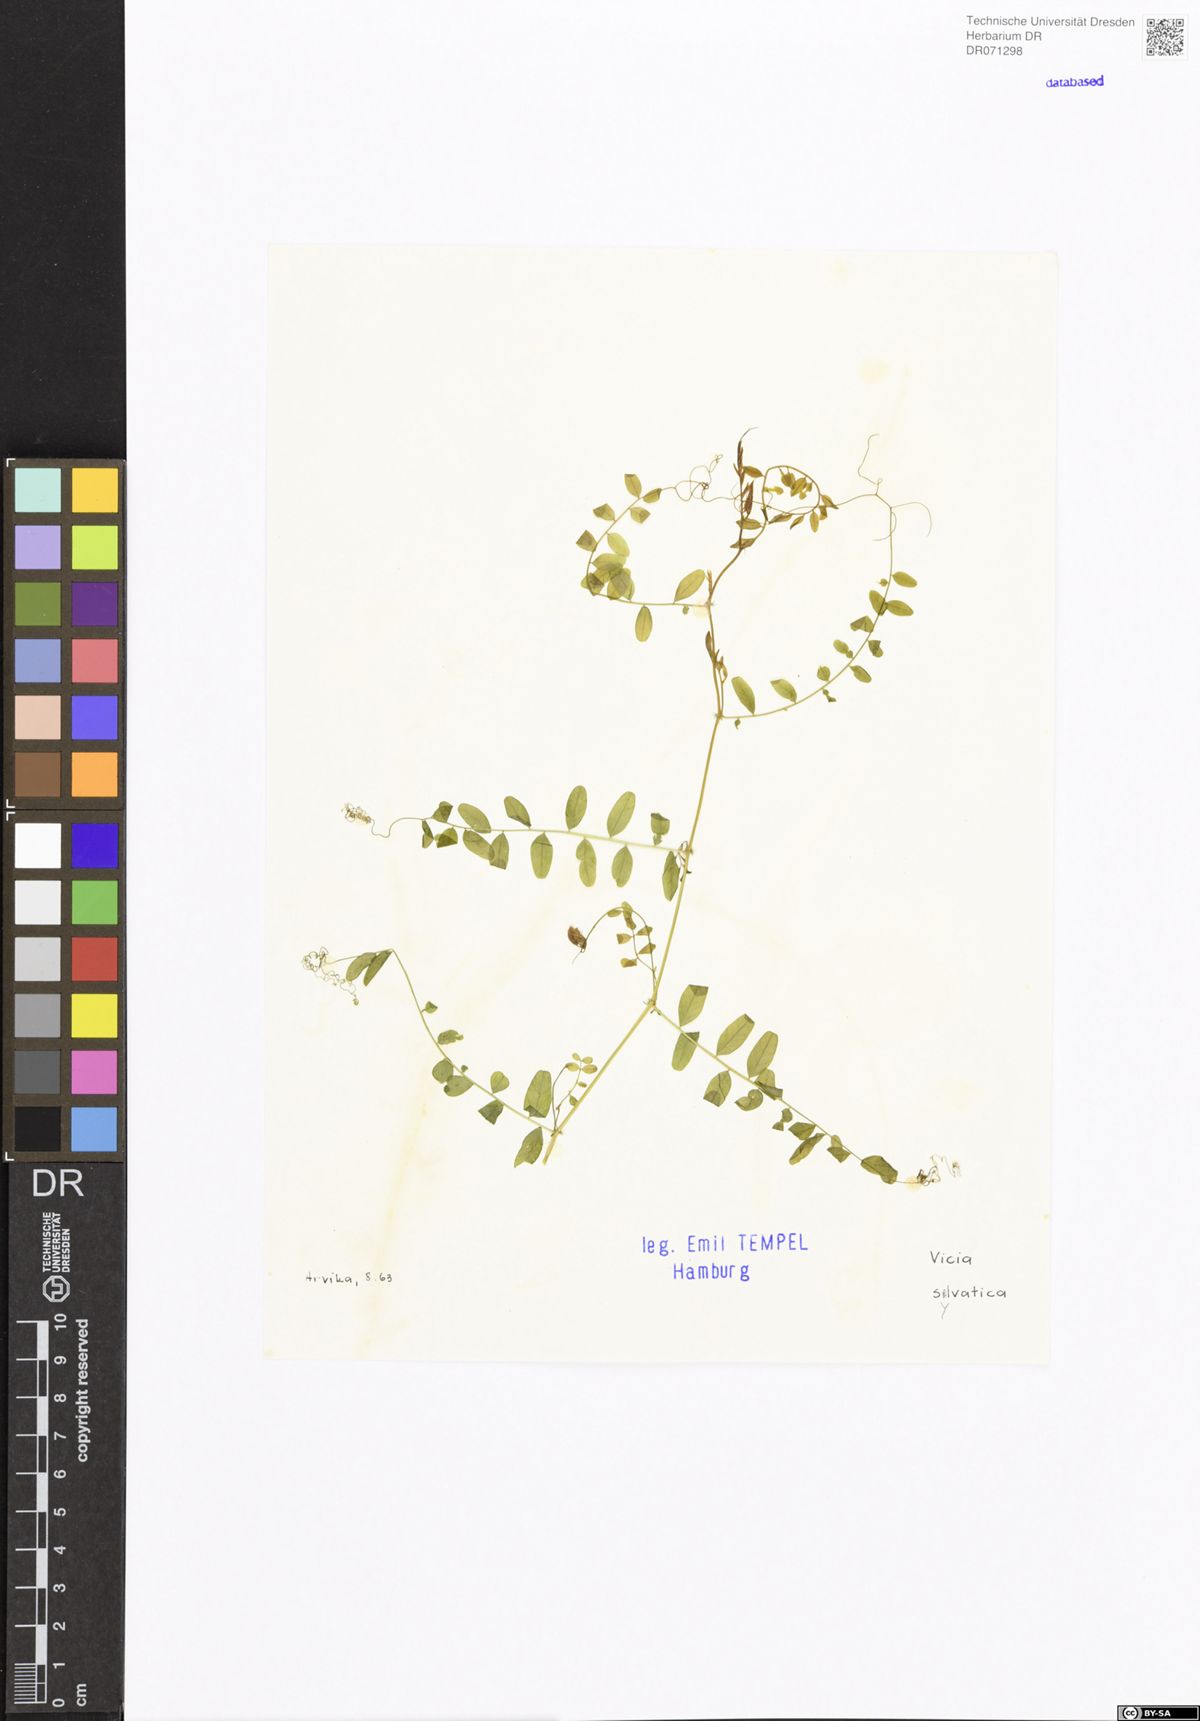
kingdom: Plantae
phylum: Tracheophyta
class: Magnoliopsida
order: Fabales
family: Fabaceae
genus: Vicia
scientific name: Vicia sylvatica
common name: Wood vetch
